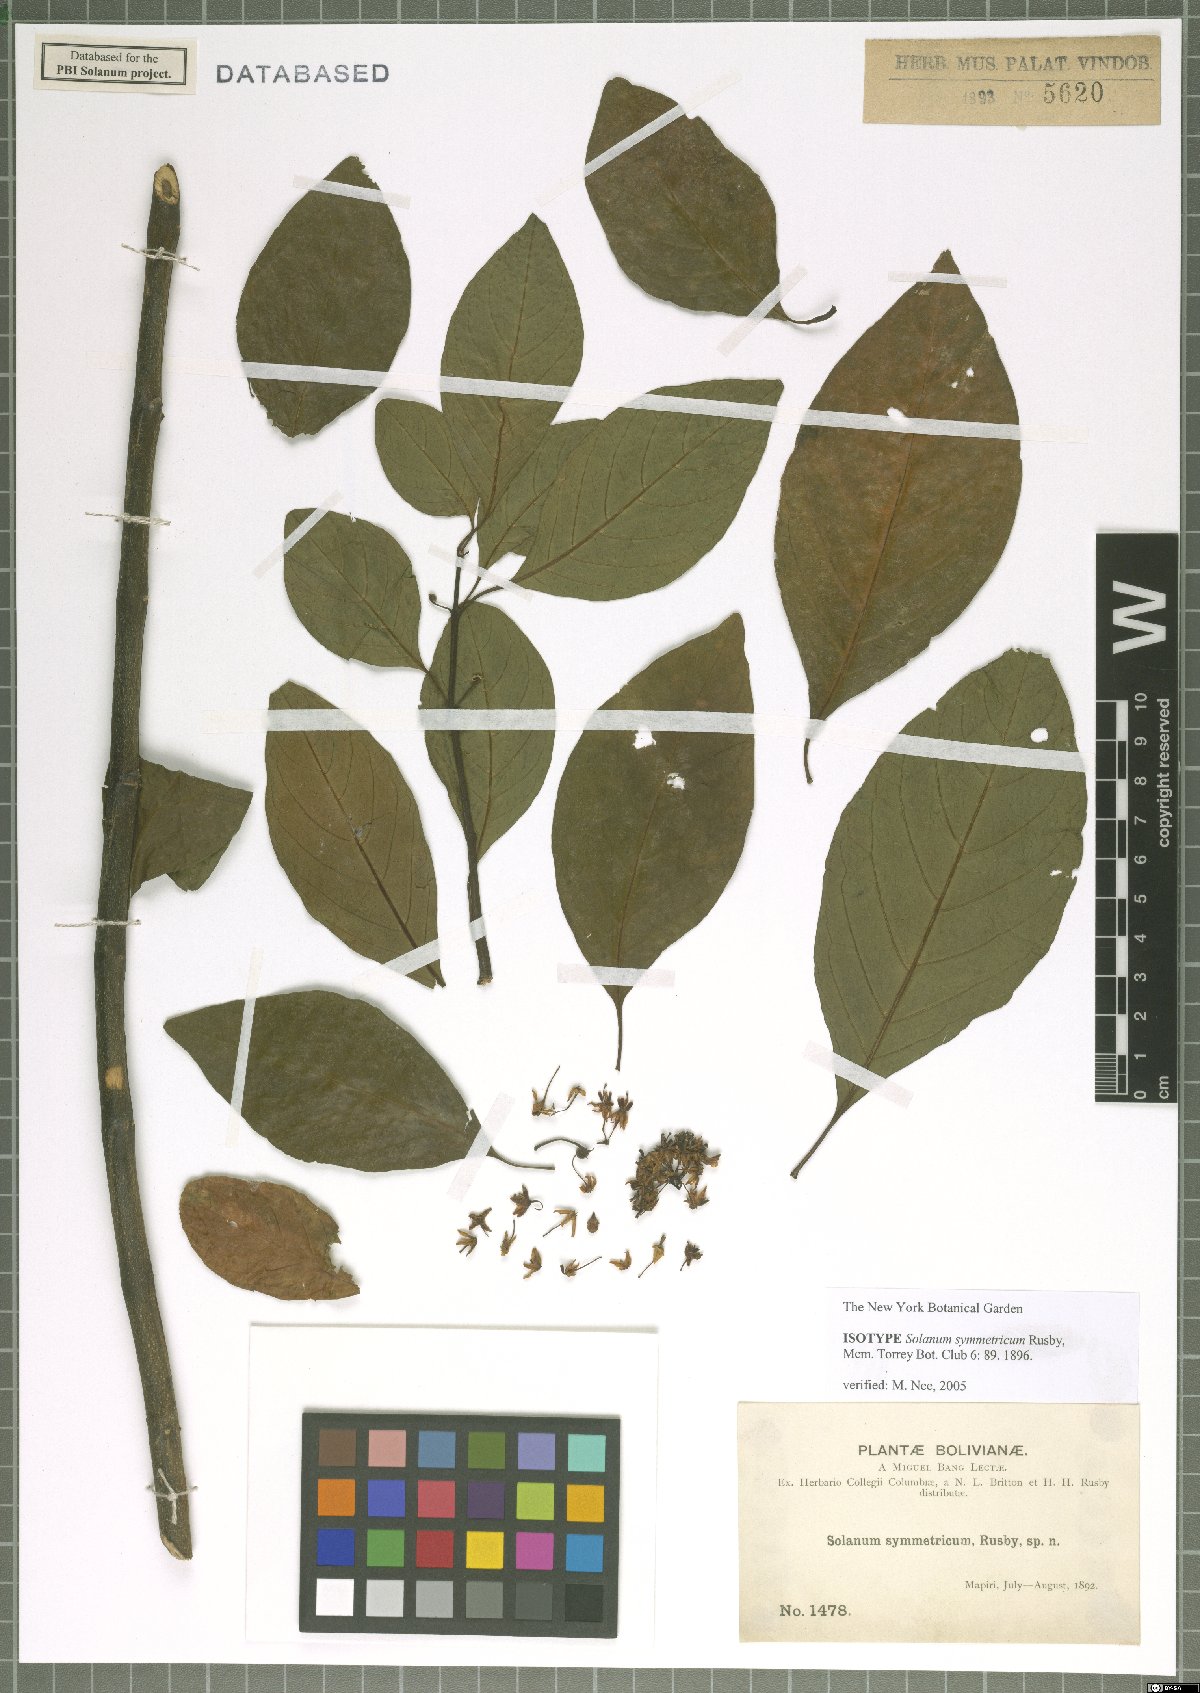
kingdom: Plantae
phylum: Tracheophyta
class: Magnoliopsida
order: Solanales
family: Solanaceae
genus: Solanum
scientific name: Solanum symmetricum
